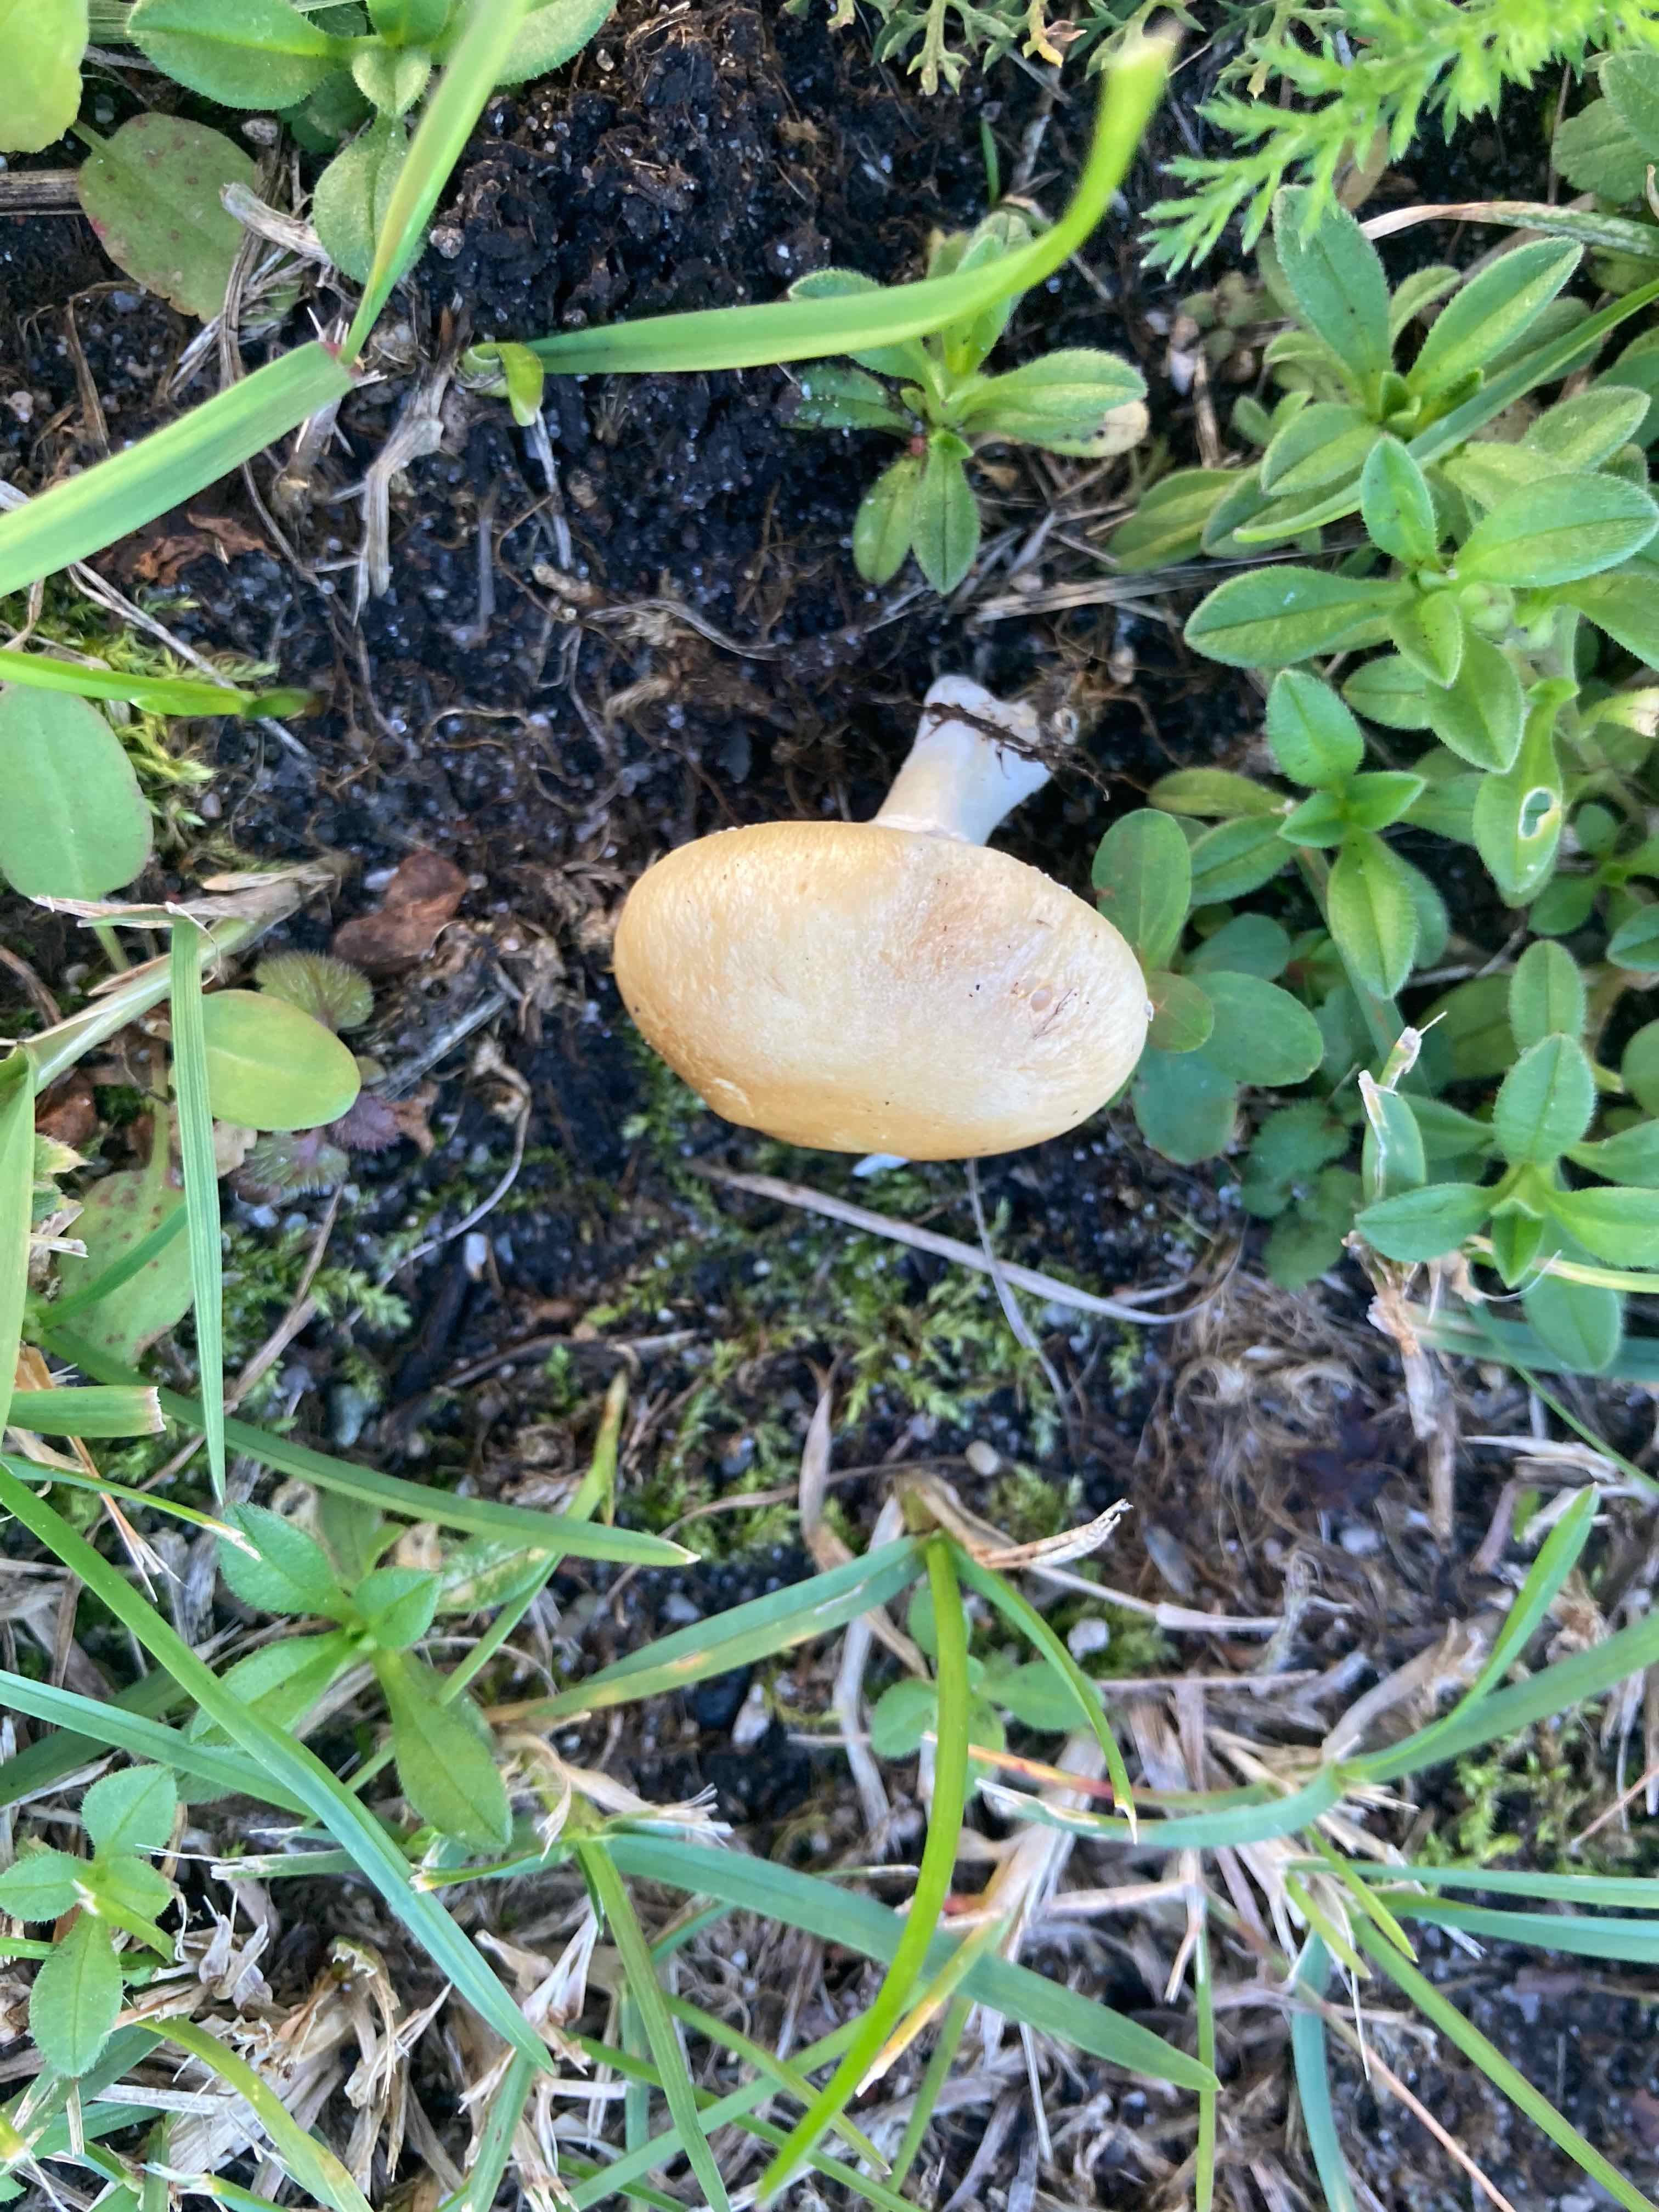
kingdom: Fungi
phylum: Basidiomycota
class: Agaricomycetes
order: Agaricales
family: Hymenogastraceae
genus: Psilocybe
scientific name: Psilocybe coronilla
